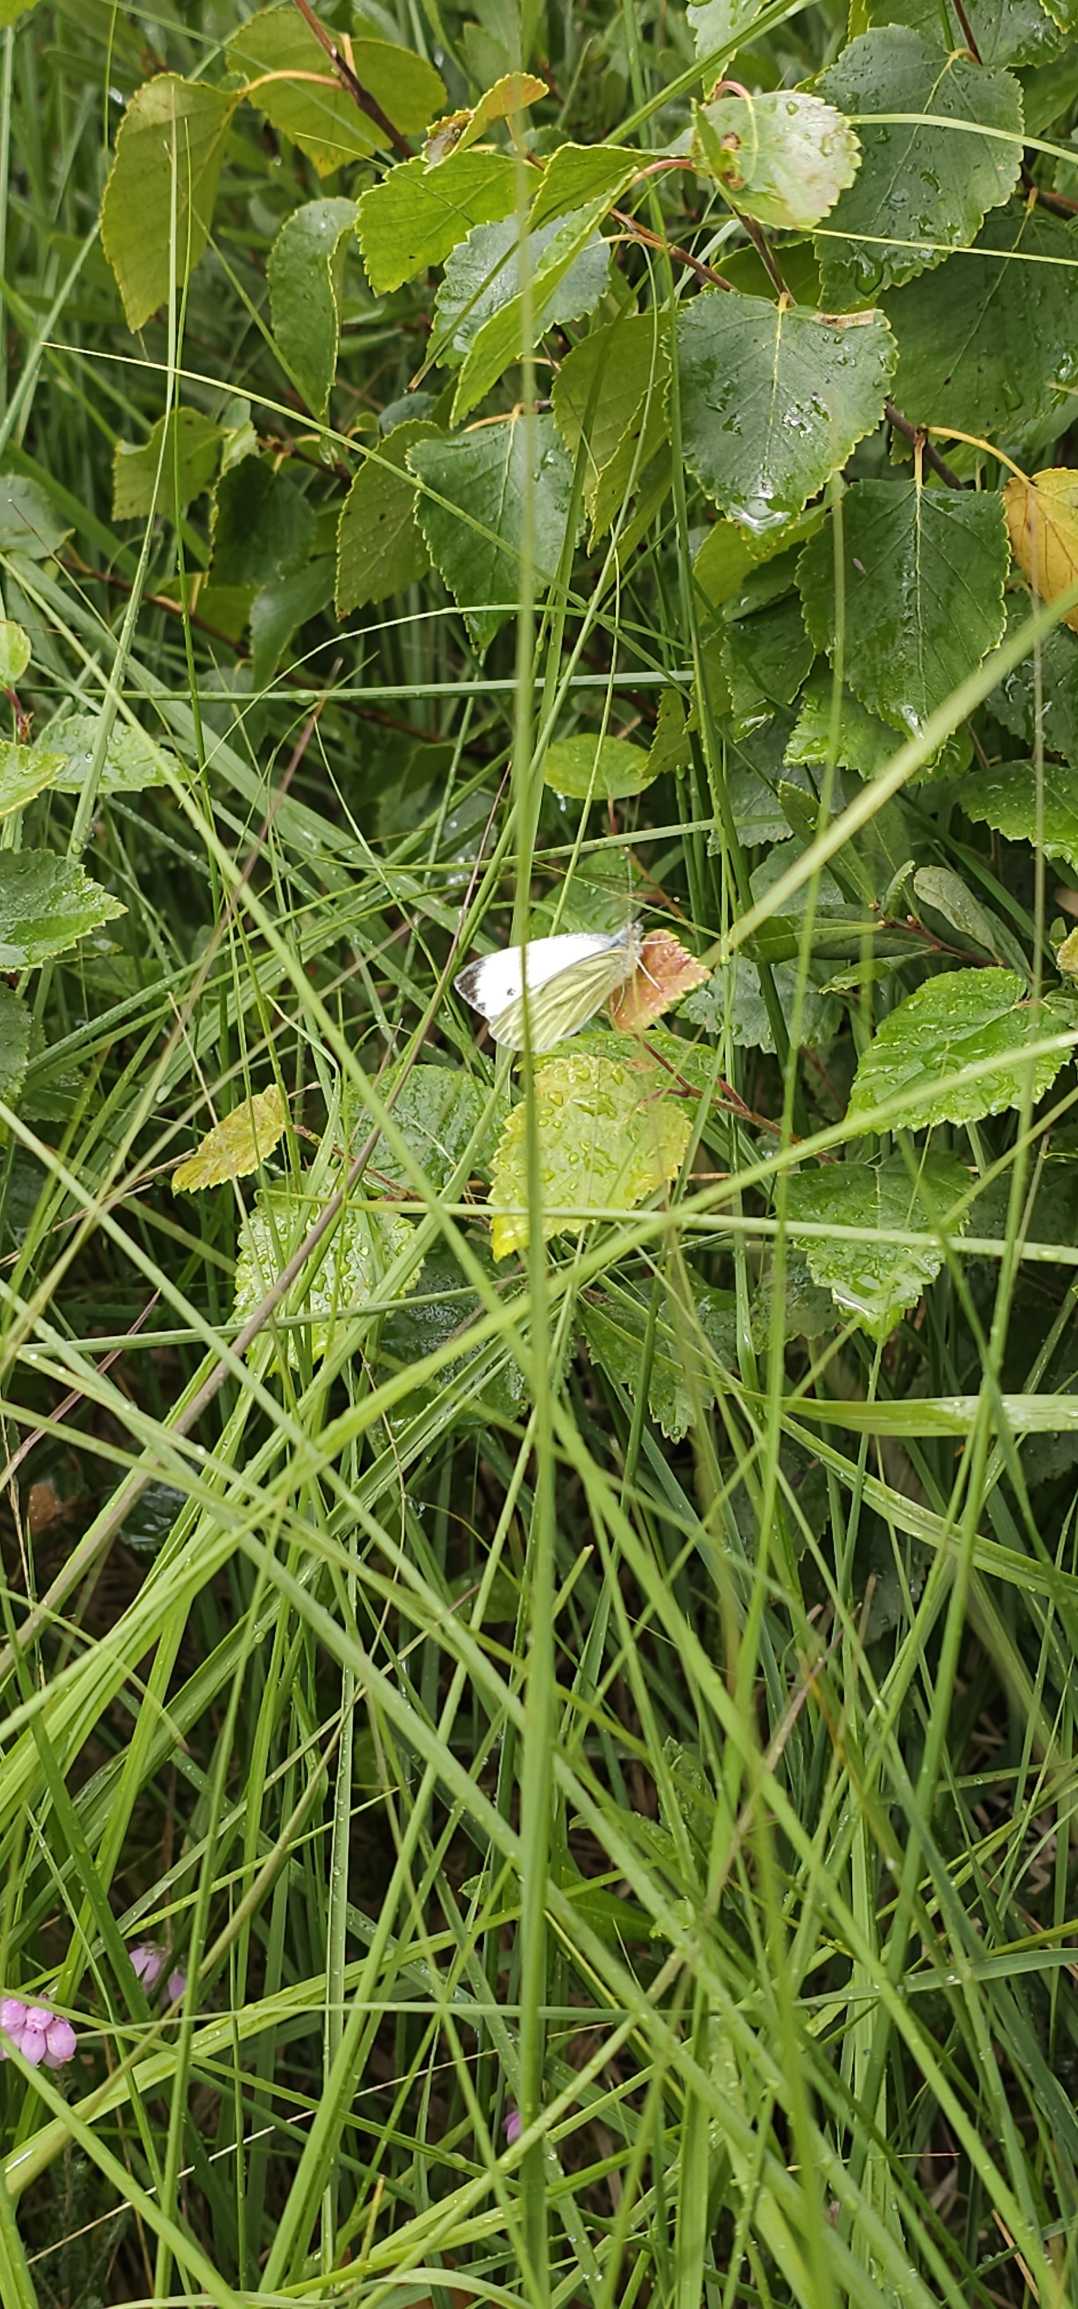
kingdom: Animalia
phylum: Arthropoda
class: Insecta
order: Lepidoptera
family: Pieridae
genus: Pieris
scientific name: Pieris napi
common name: Grønåret kålsommerfugl
